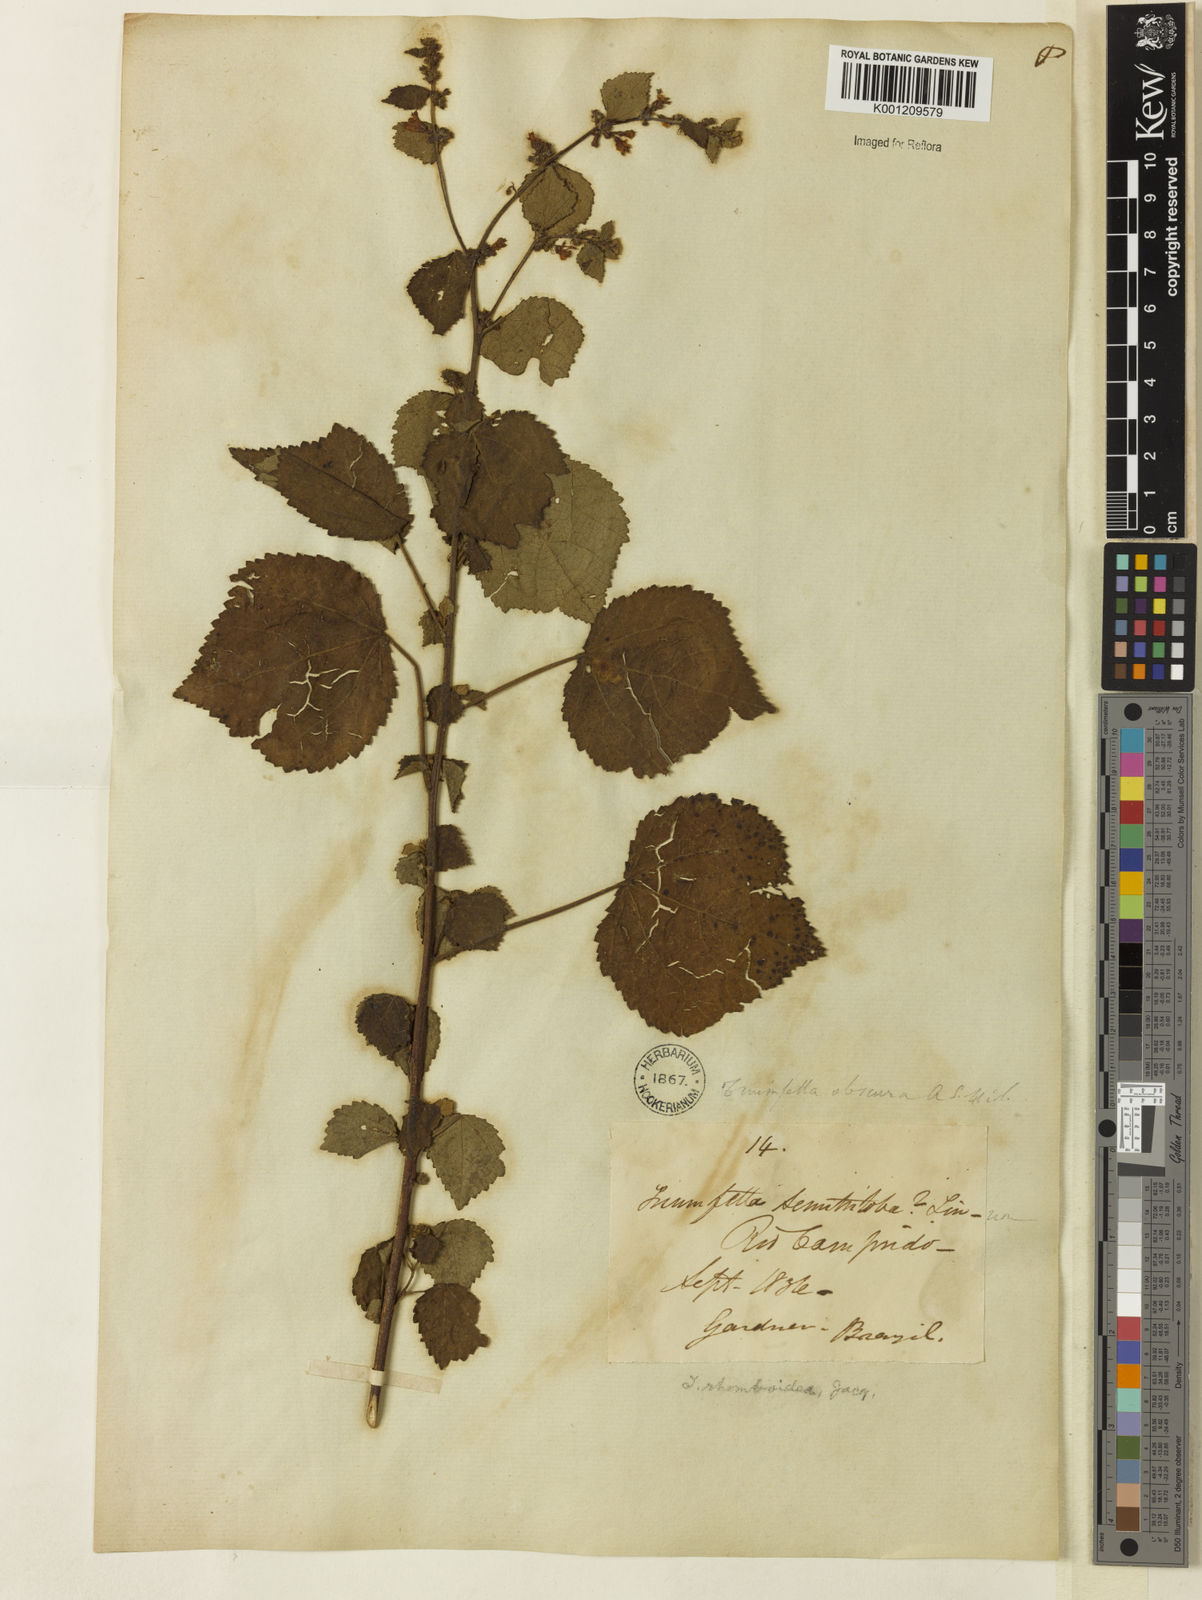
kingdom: Plantae
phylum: Tracheophyta
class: Magnoliopsida
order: Malvales
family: Malvaceae
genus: Triumfetta
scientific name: Triumfetta rhomboidea
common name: Diamond burbark
